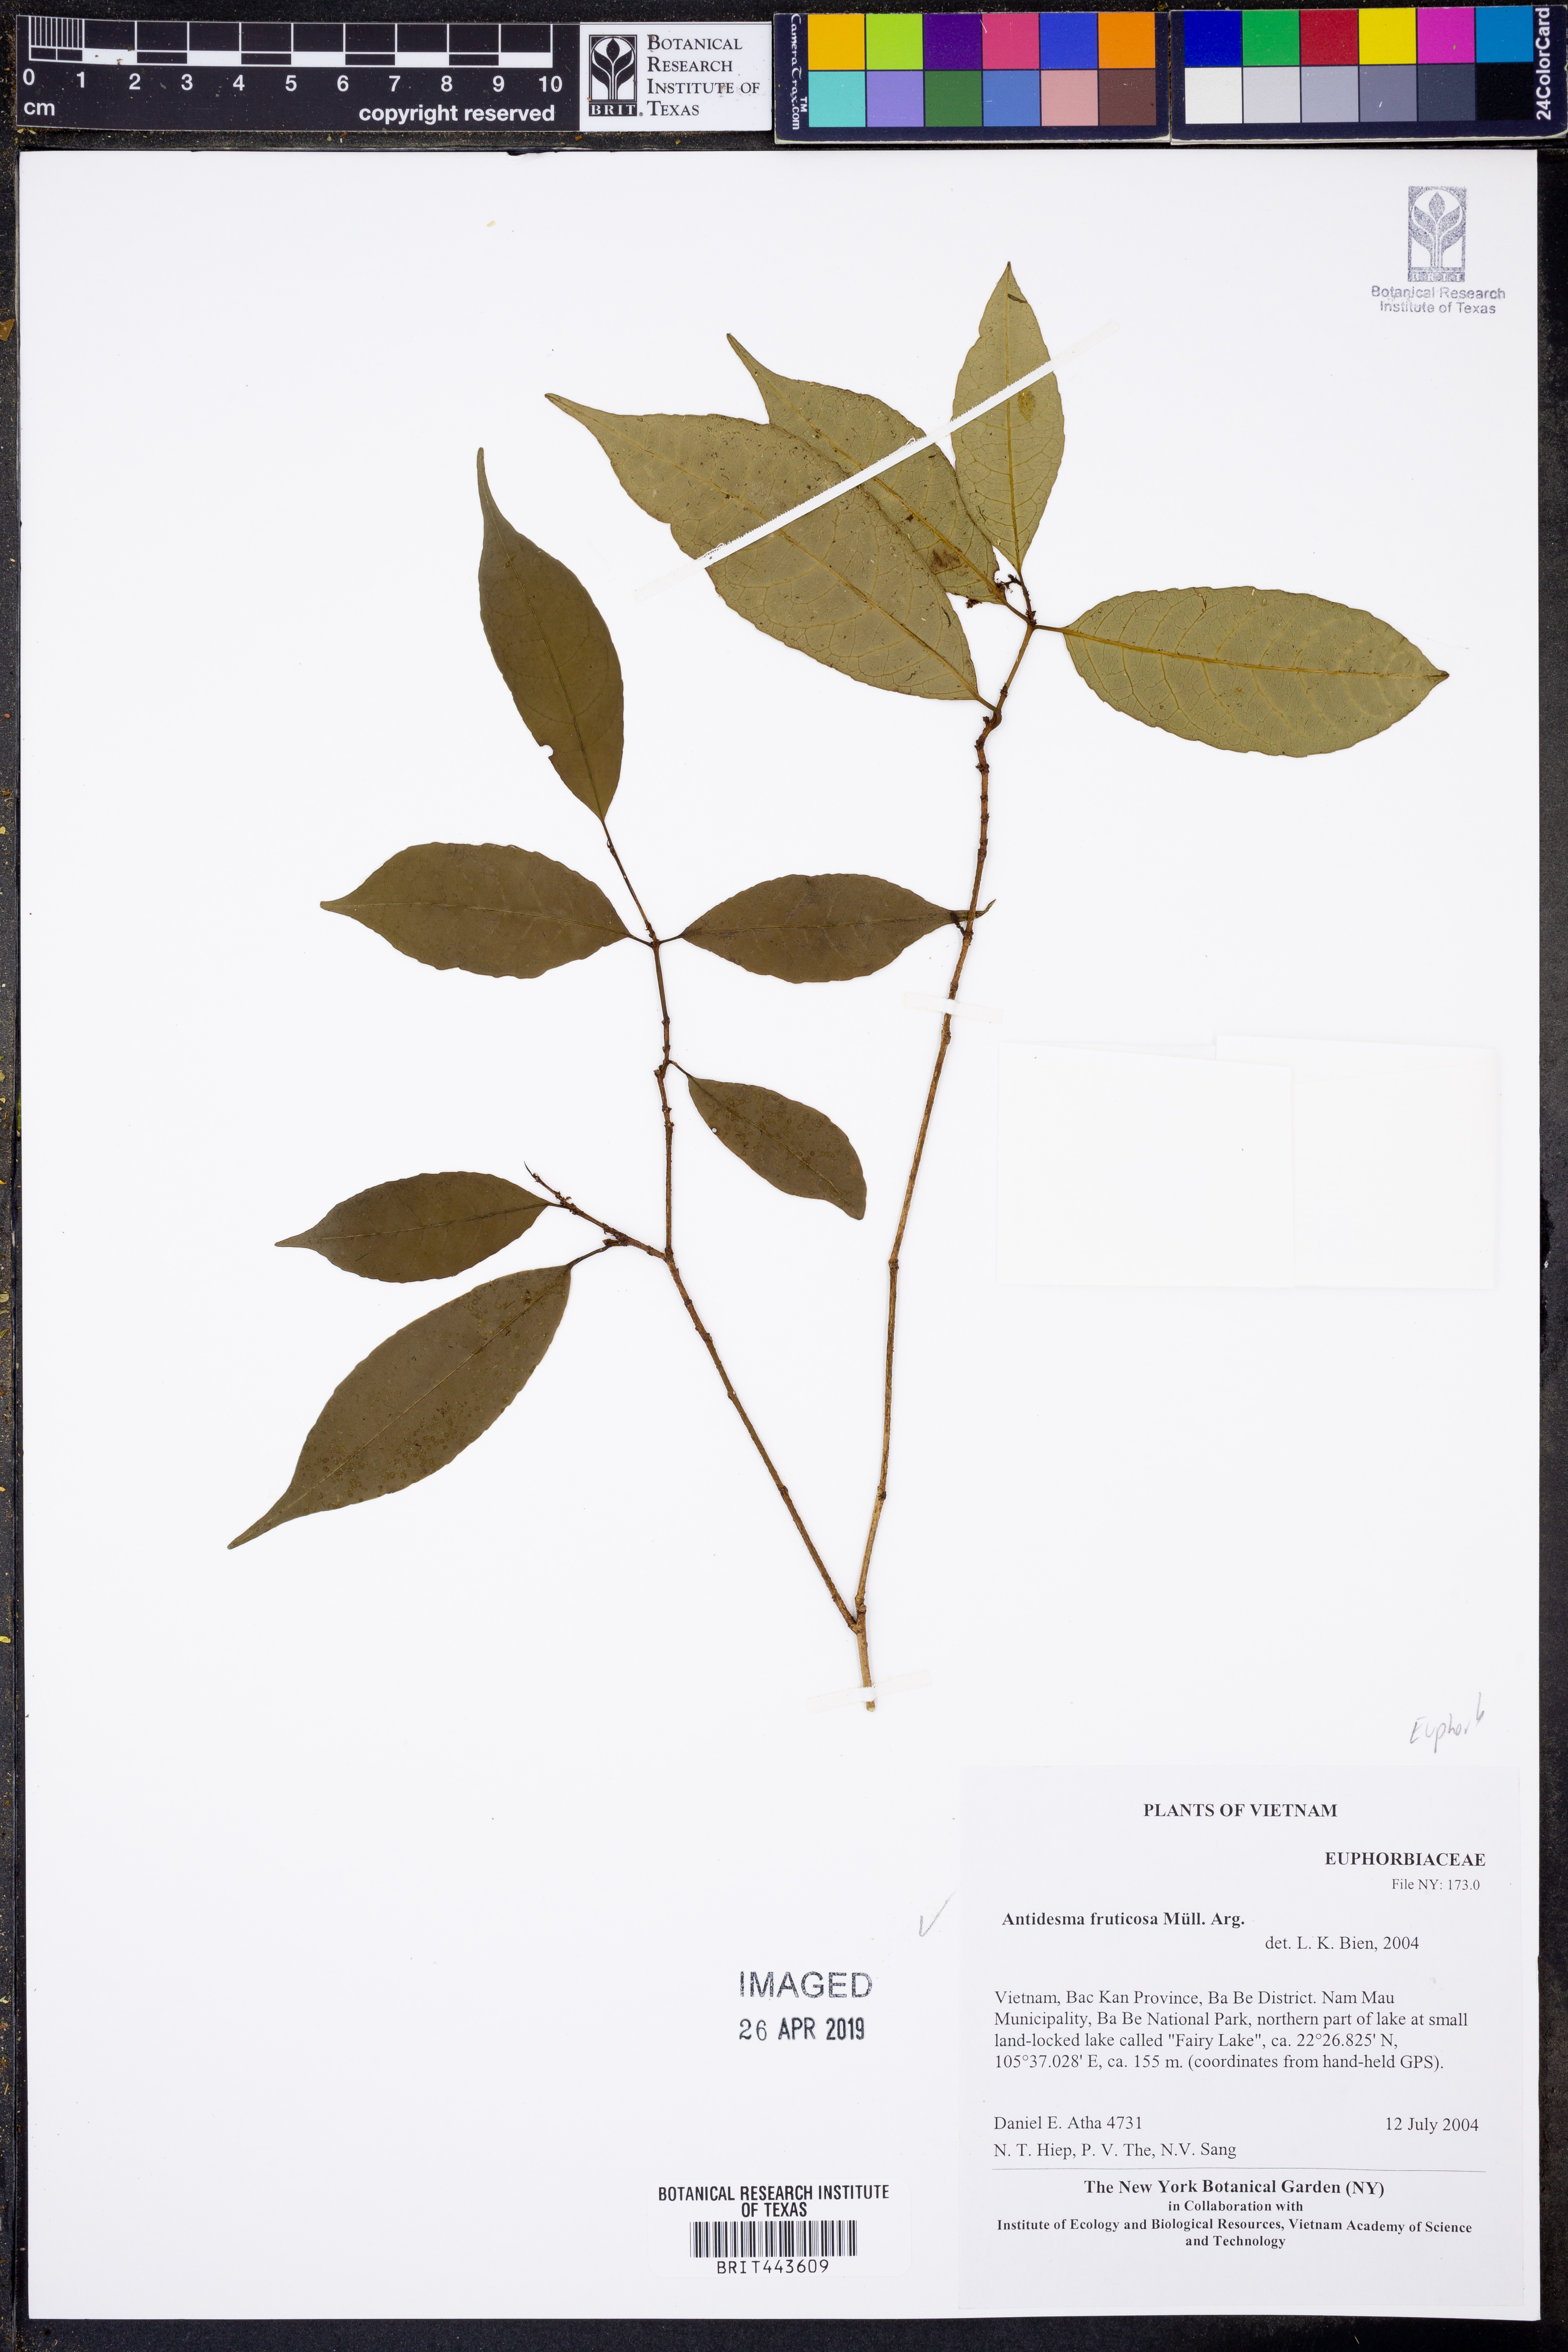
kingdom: Plantae
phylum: Tracheophyta
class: Magnoliopsida
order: Malpighiales
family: Phyllanthaceae
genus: Antidesma
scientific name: Antidesma fruticosum
